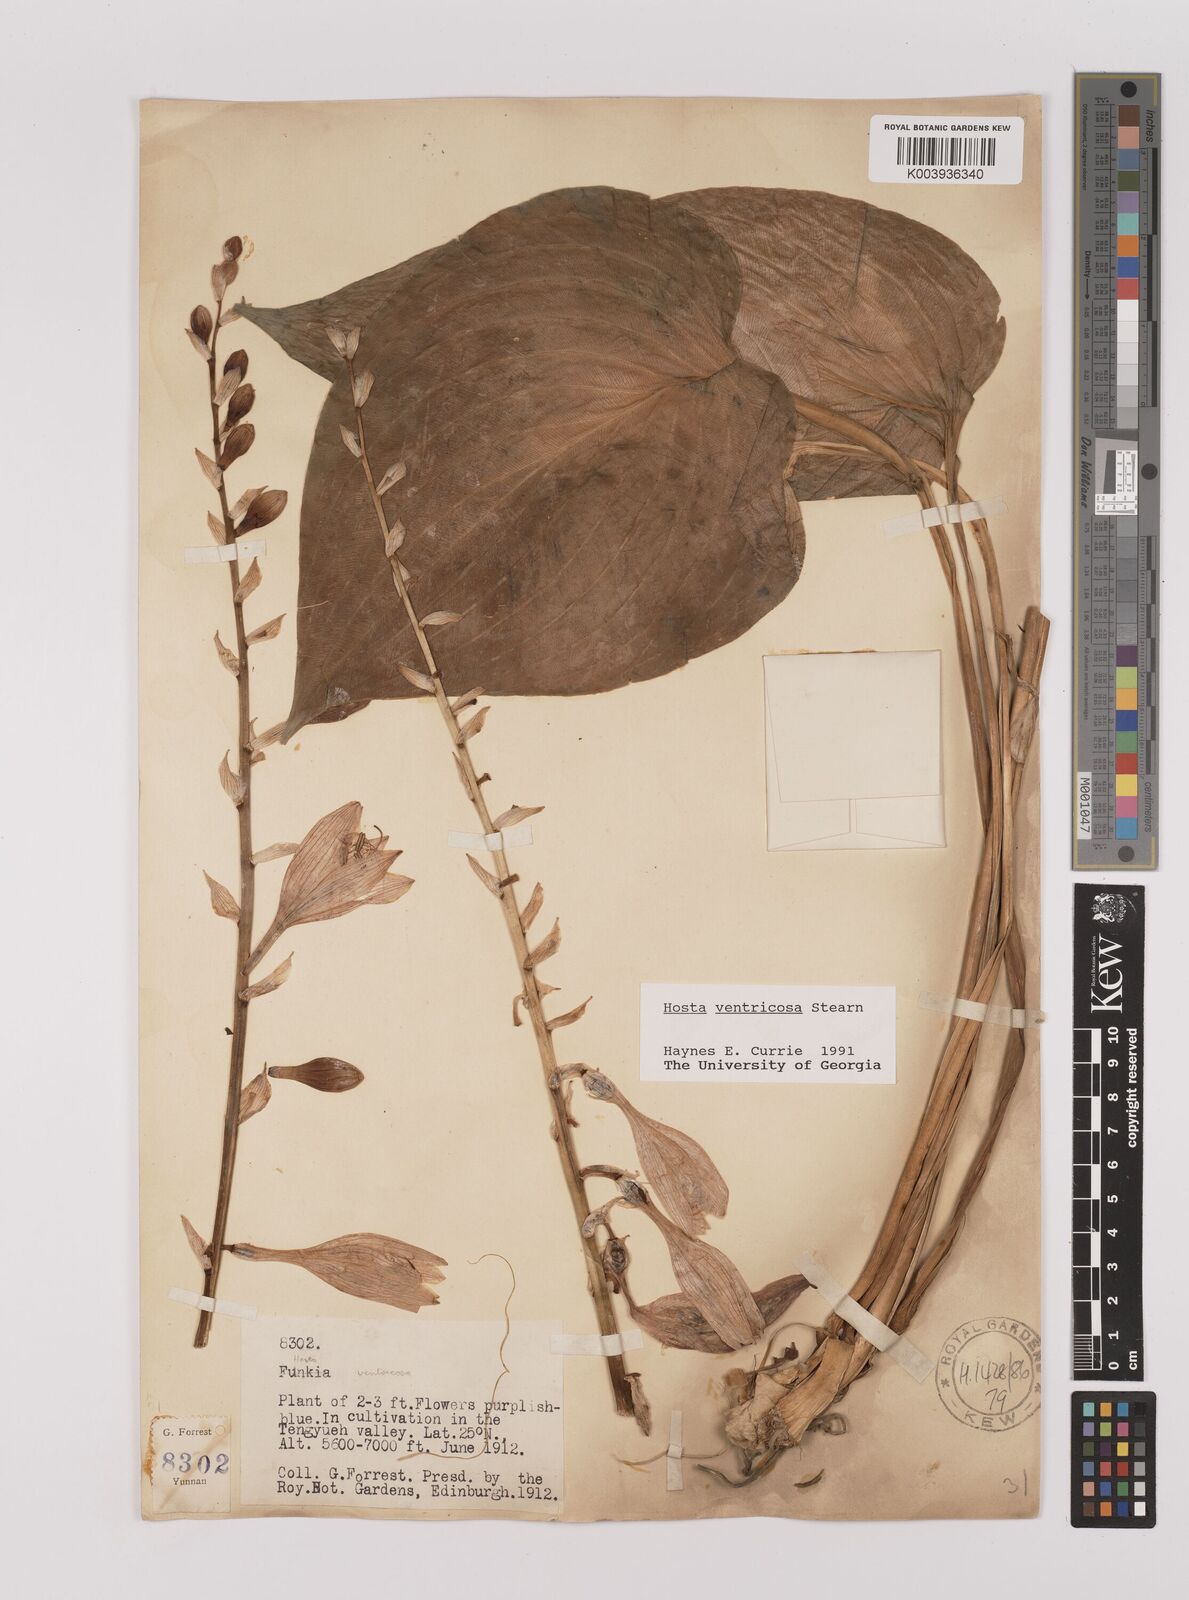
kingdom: Plantae
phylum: Tracheophyta
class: Liliopsida
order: Asparagales
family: Asparagaceae
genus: Hosta
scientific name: Hosta ventricosa
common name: Blue plantain-lily
